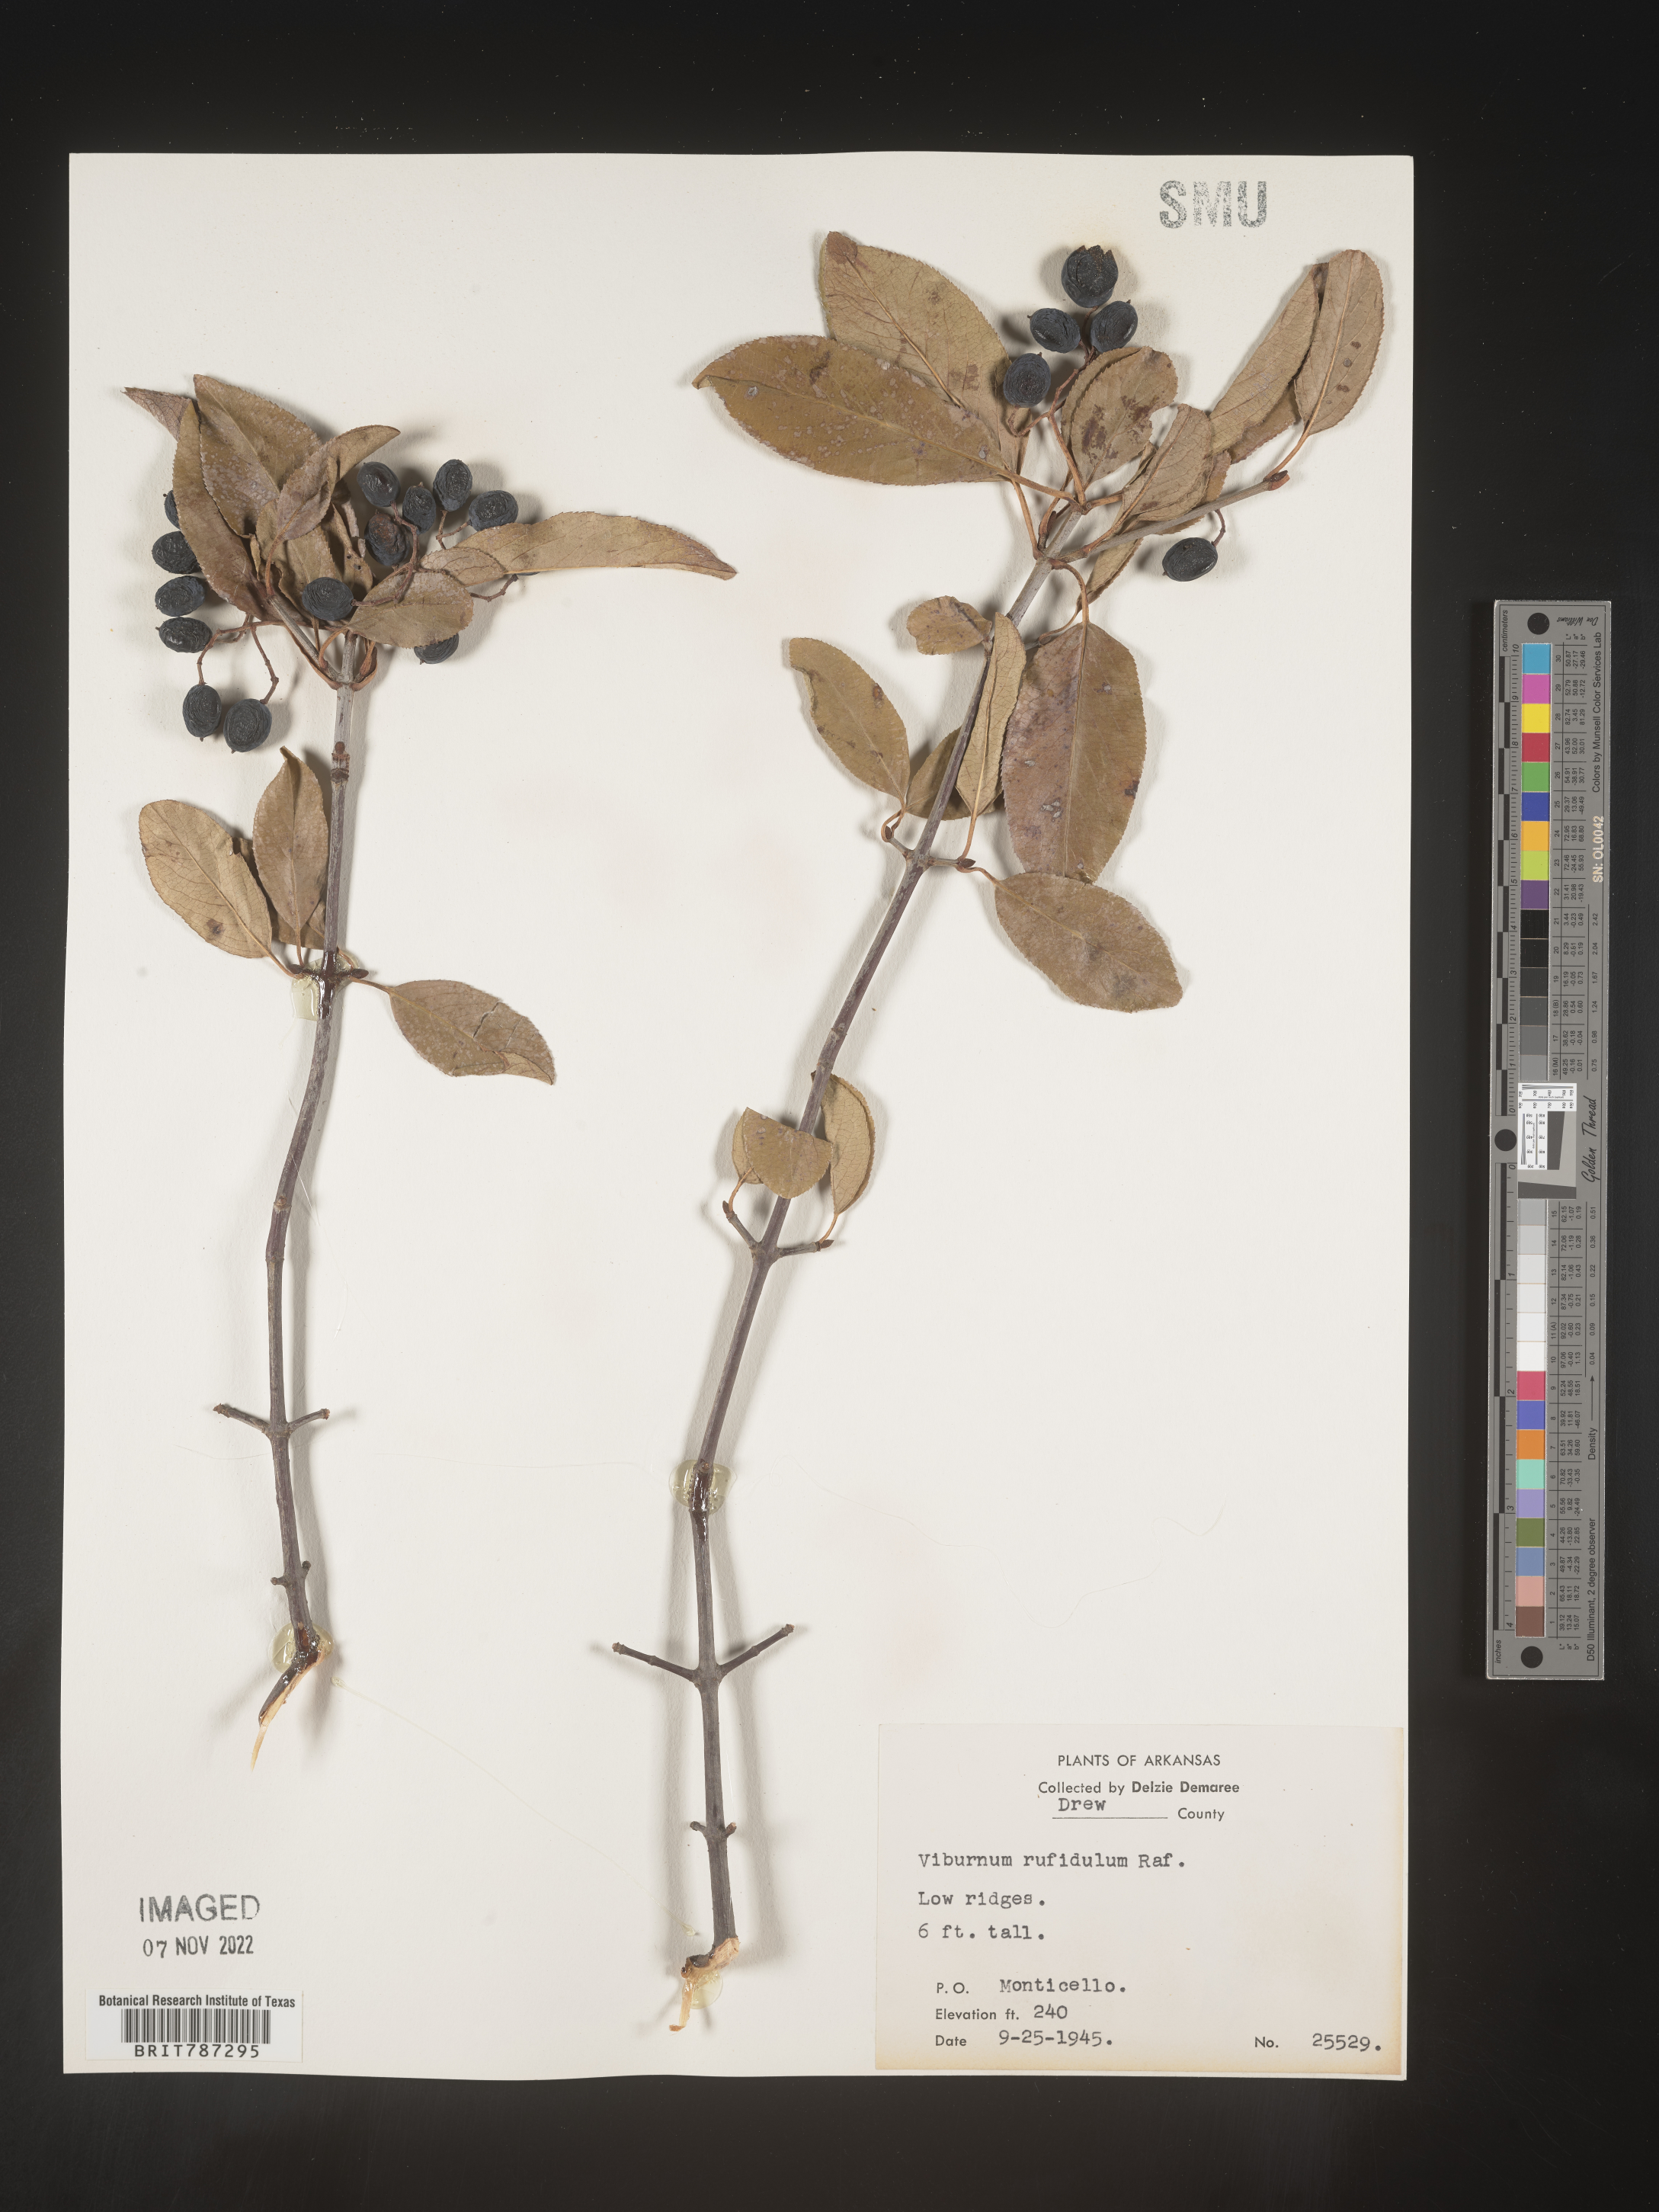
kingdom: Plantae
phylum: Tracheophyta
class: Magnoliopsida
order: Dipsacales
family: Viburnaceae
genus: Viburnum
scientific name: Viburnum rufidulum
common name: Blue haw
